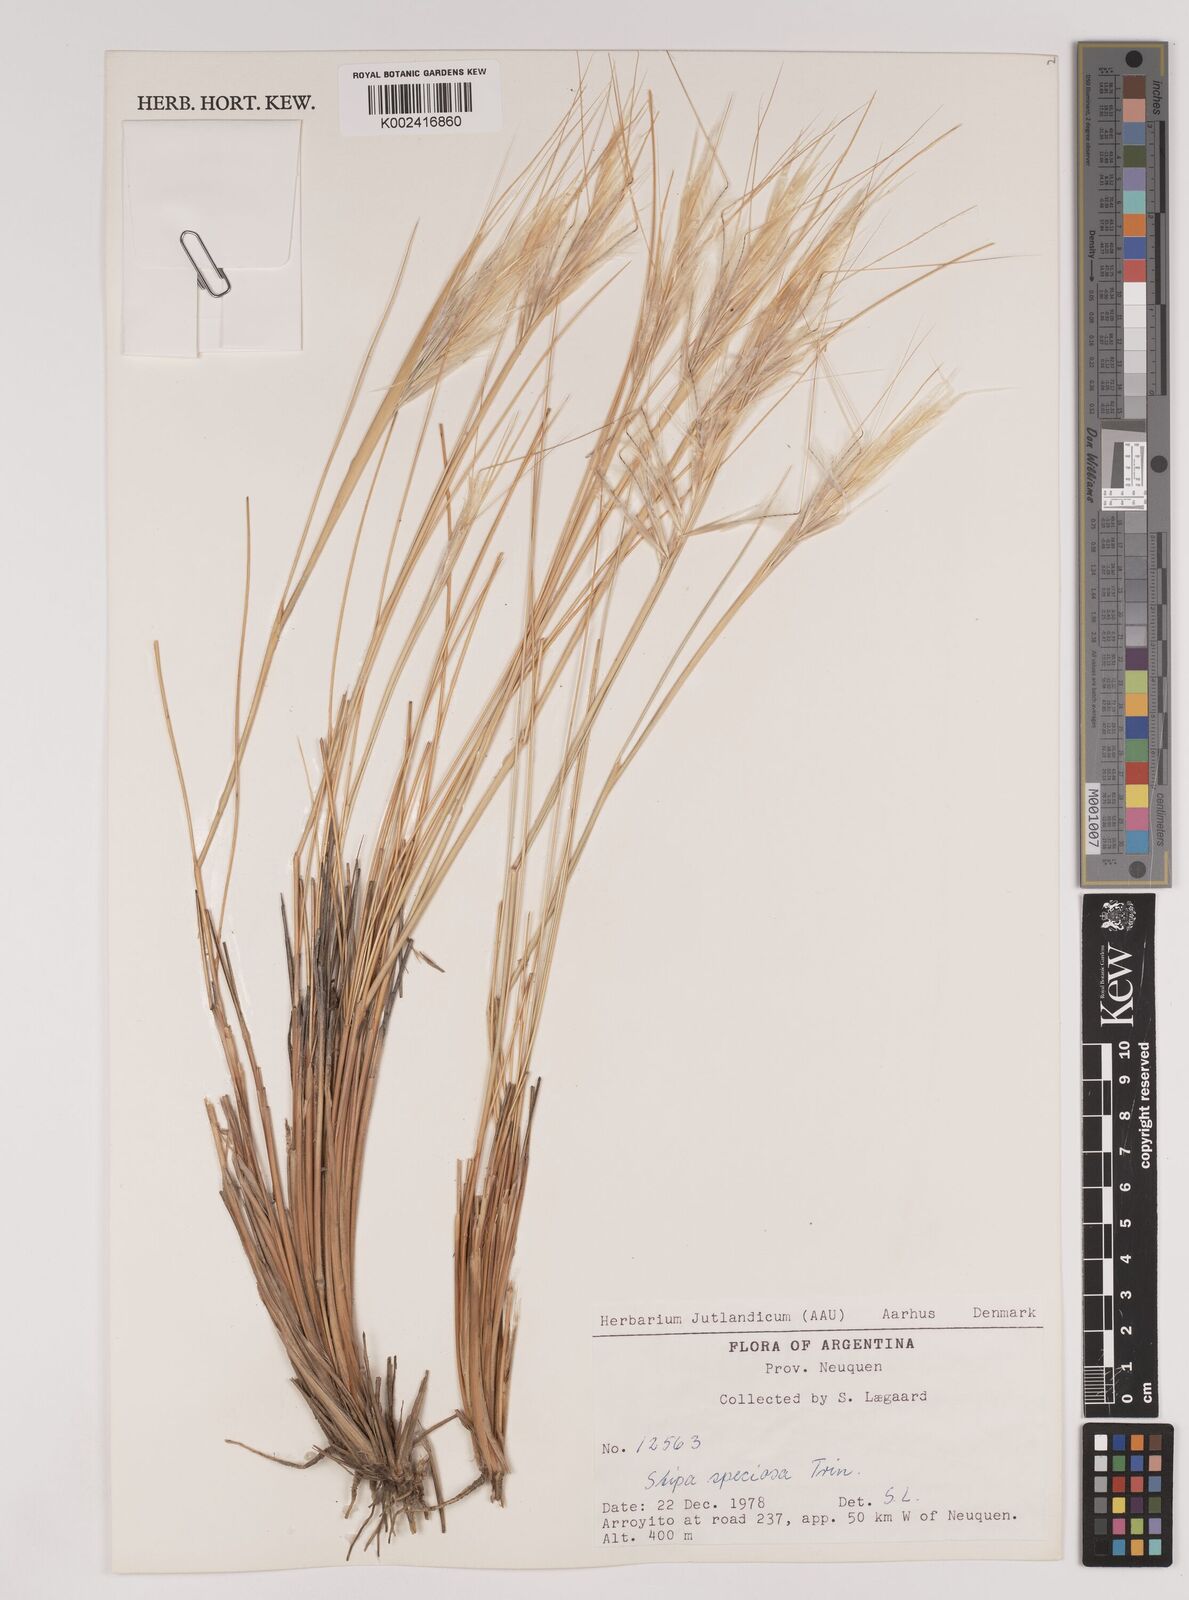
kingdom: Plantae
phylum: Tracheophyta
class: Liliopsida
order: Poales
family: Poaceae
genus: Pappostipa
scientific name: Pappostipa speciosa
